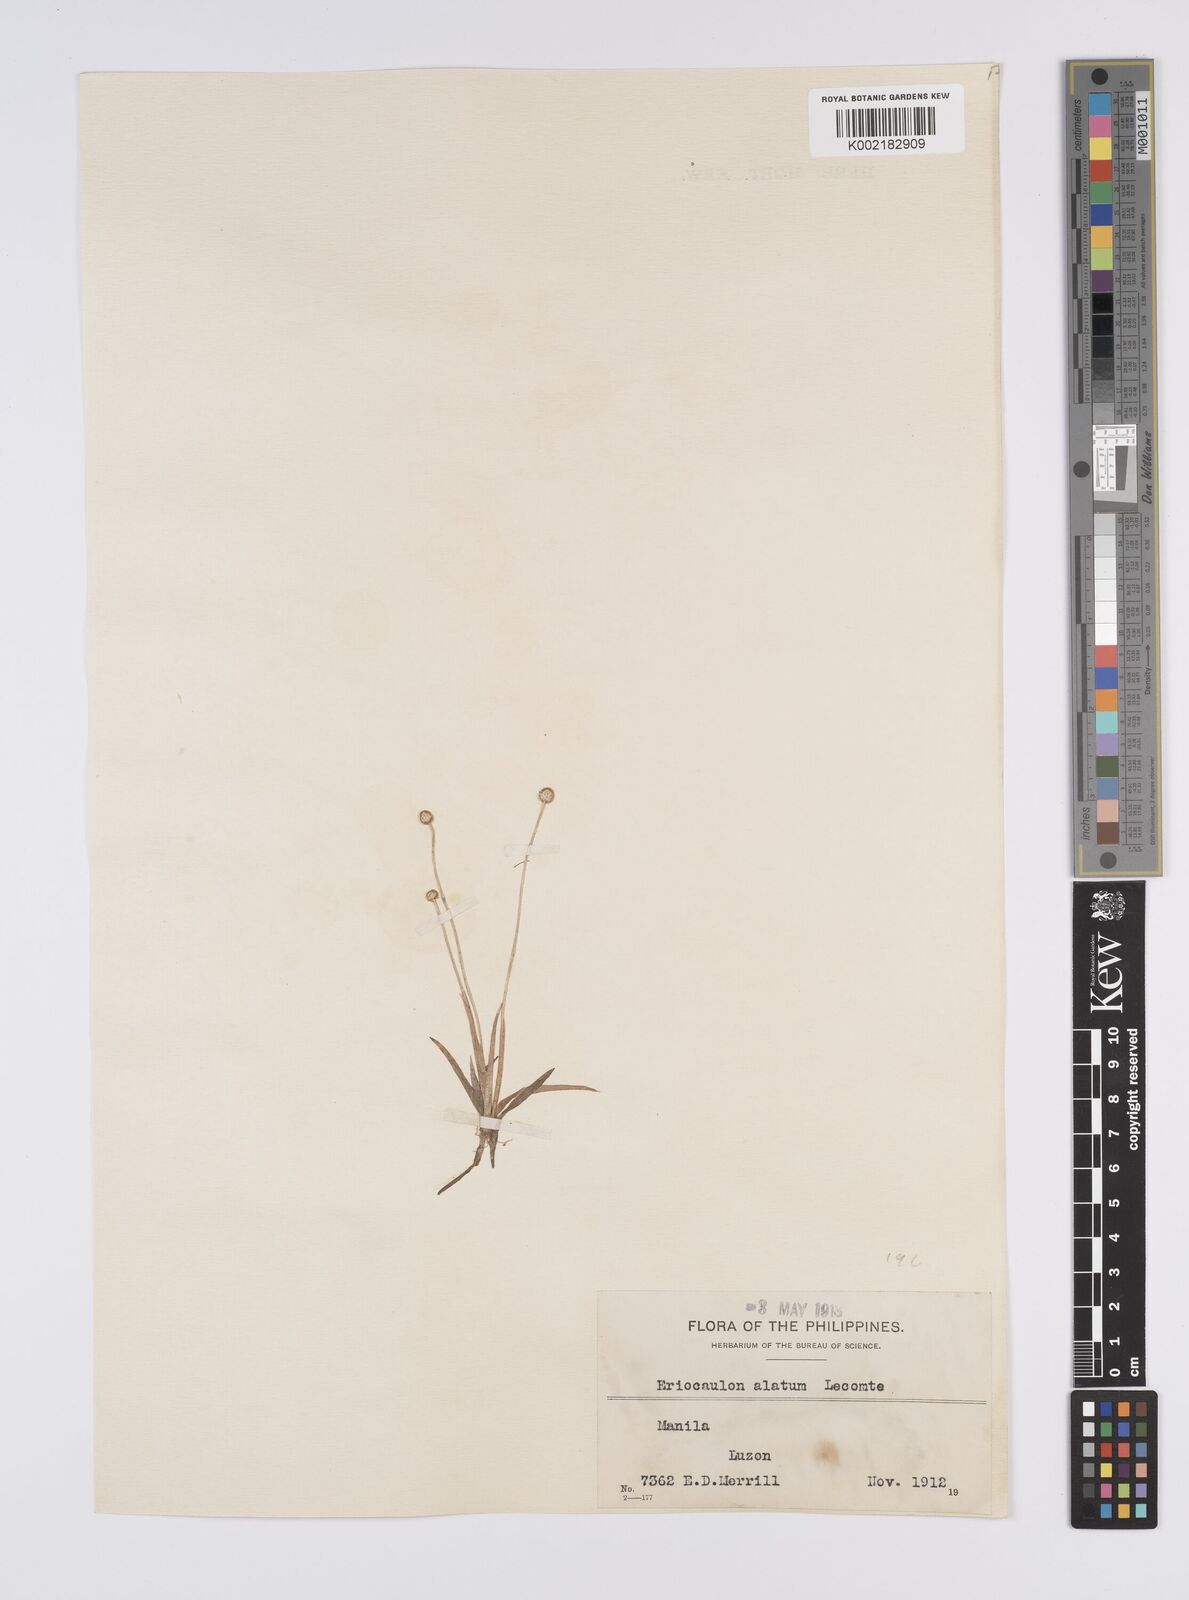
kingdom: Plantae
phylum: Tracheophyta
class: Liliopsida
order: Poales
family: Eriocaulaceae
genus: Eriocaulon
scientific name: Eriocaulon zollingerianum
